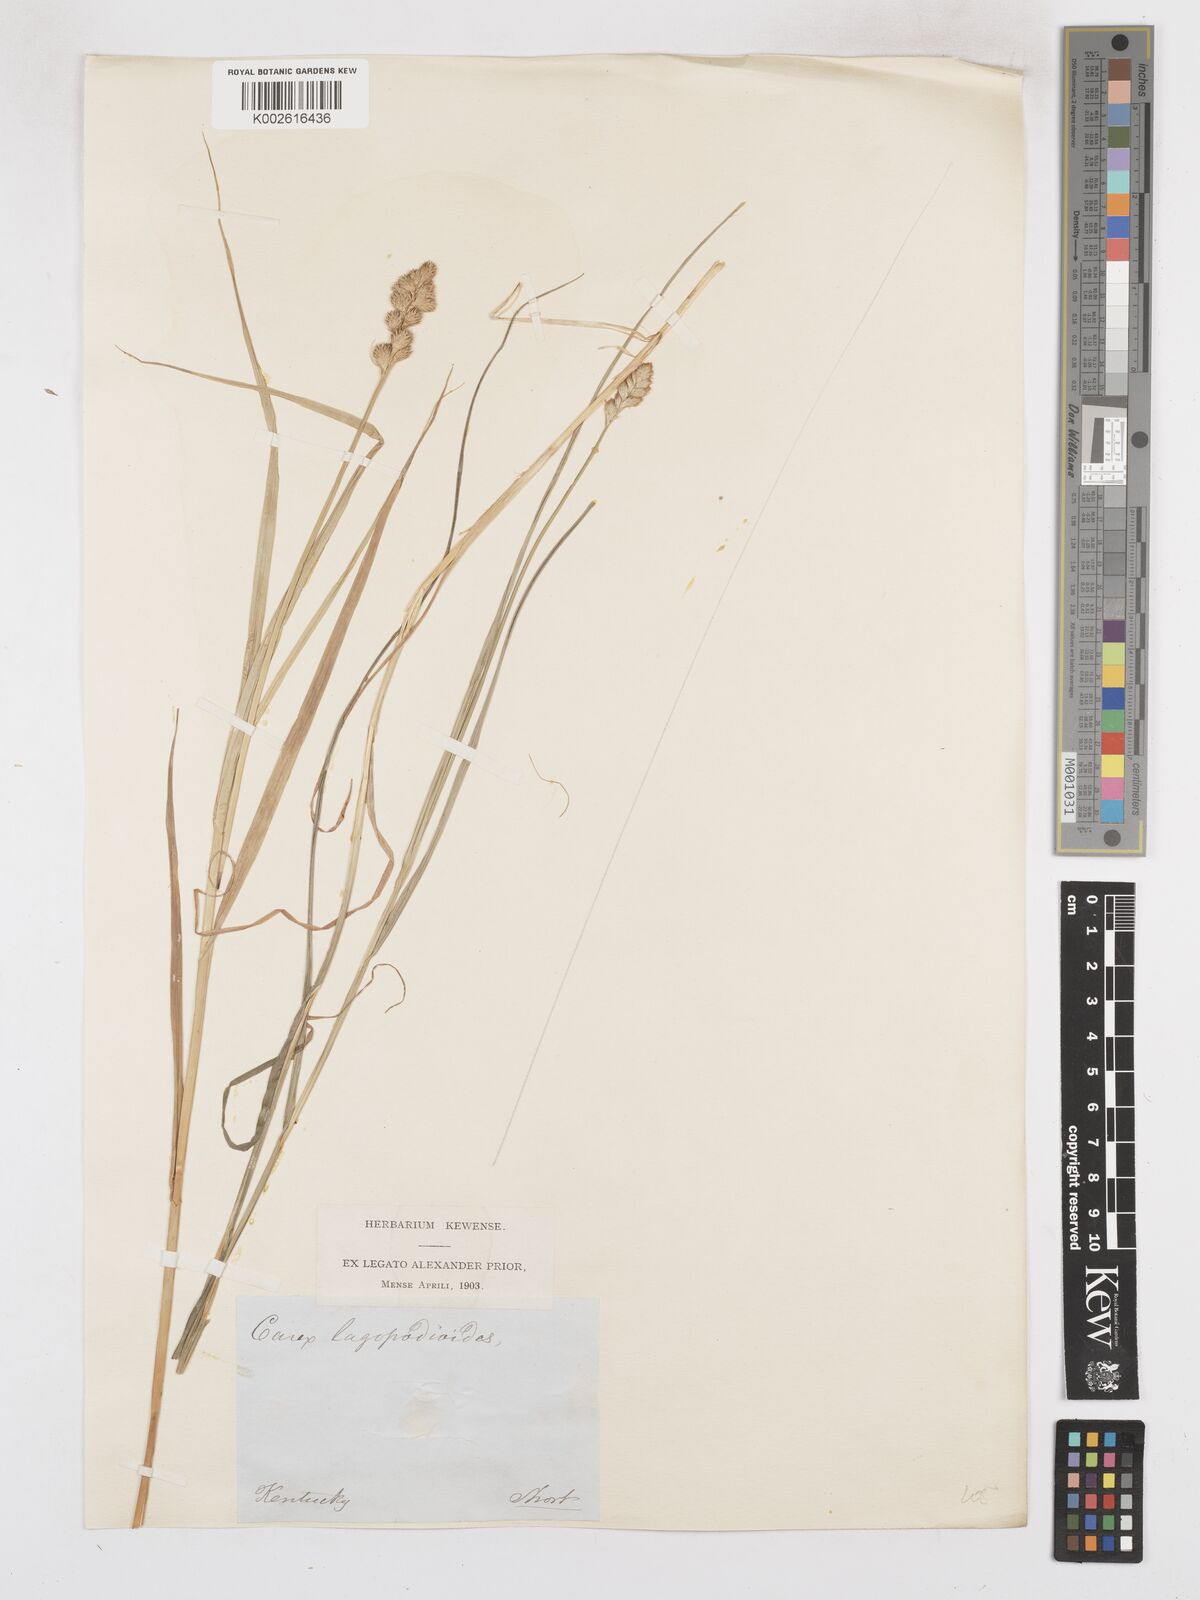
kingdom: Plantae
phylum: Tracheophyta
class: Liliopsida
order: Poales
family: Cyperaceae
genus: Carex
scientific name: Carex tribuloides
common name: Blunt broom sedge
